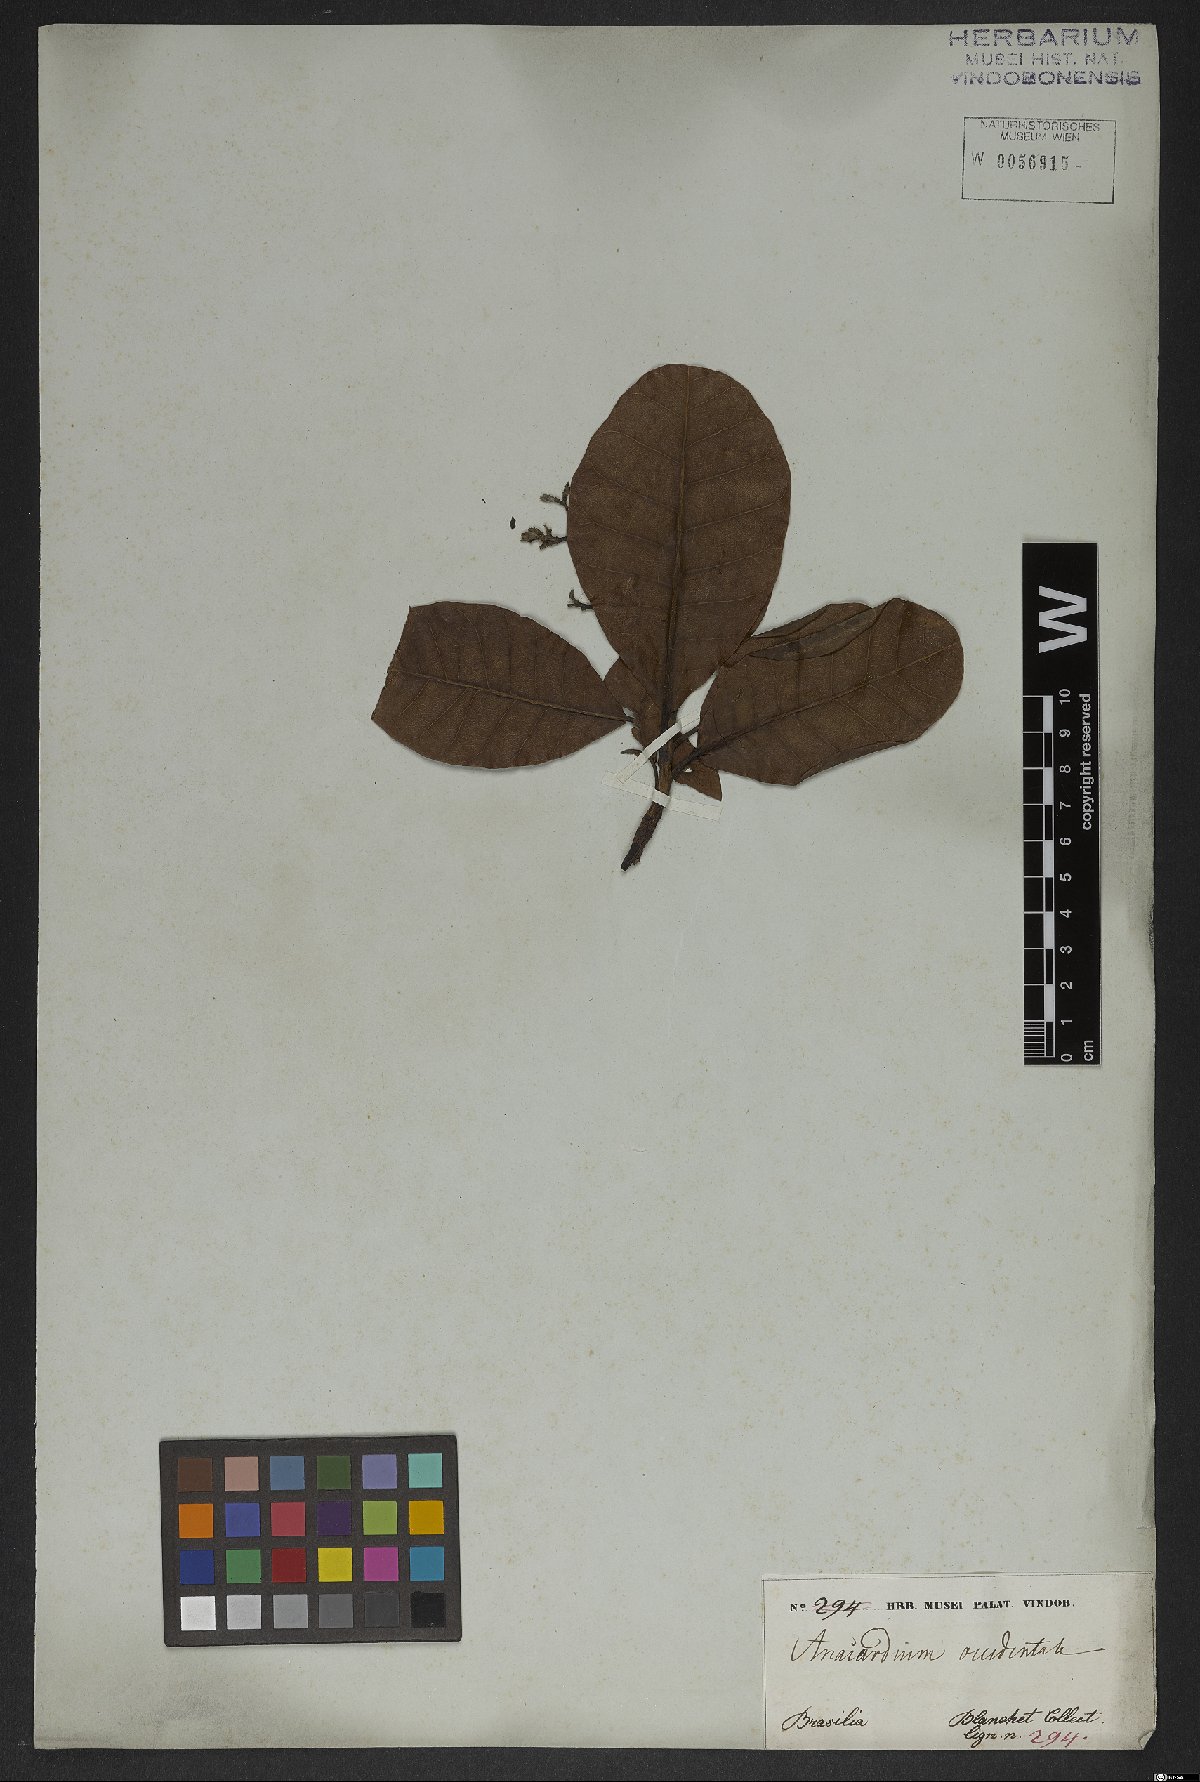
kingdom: Plantae
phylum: Tracheophyta
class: Magnoliopsida
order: Sapindales
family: Anacardiaceae
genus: Anacardium
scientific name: Anacardium occidentale
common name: Cashew
